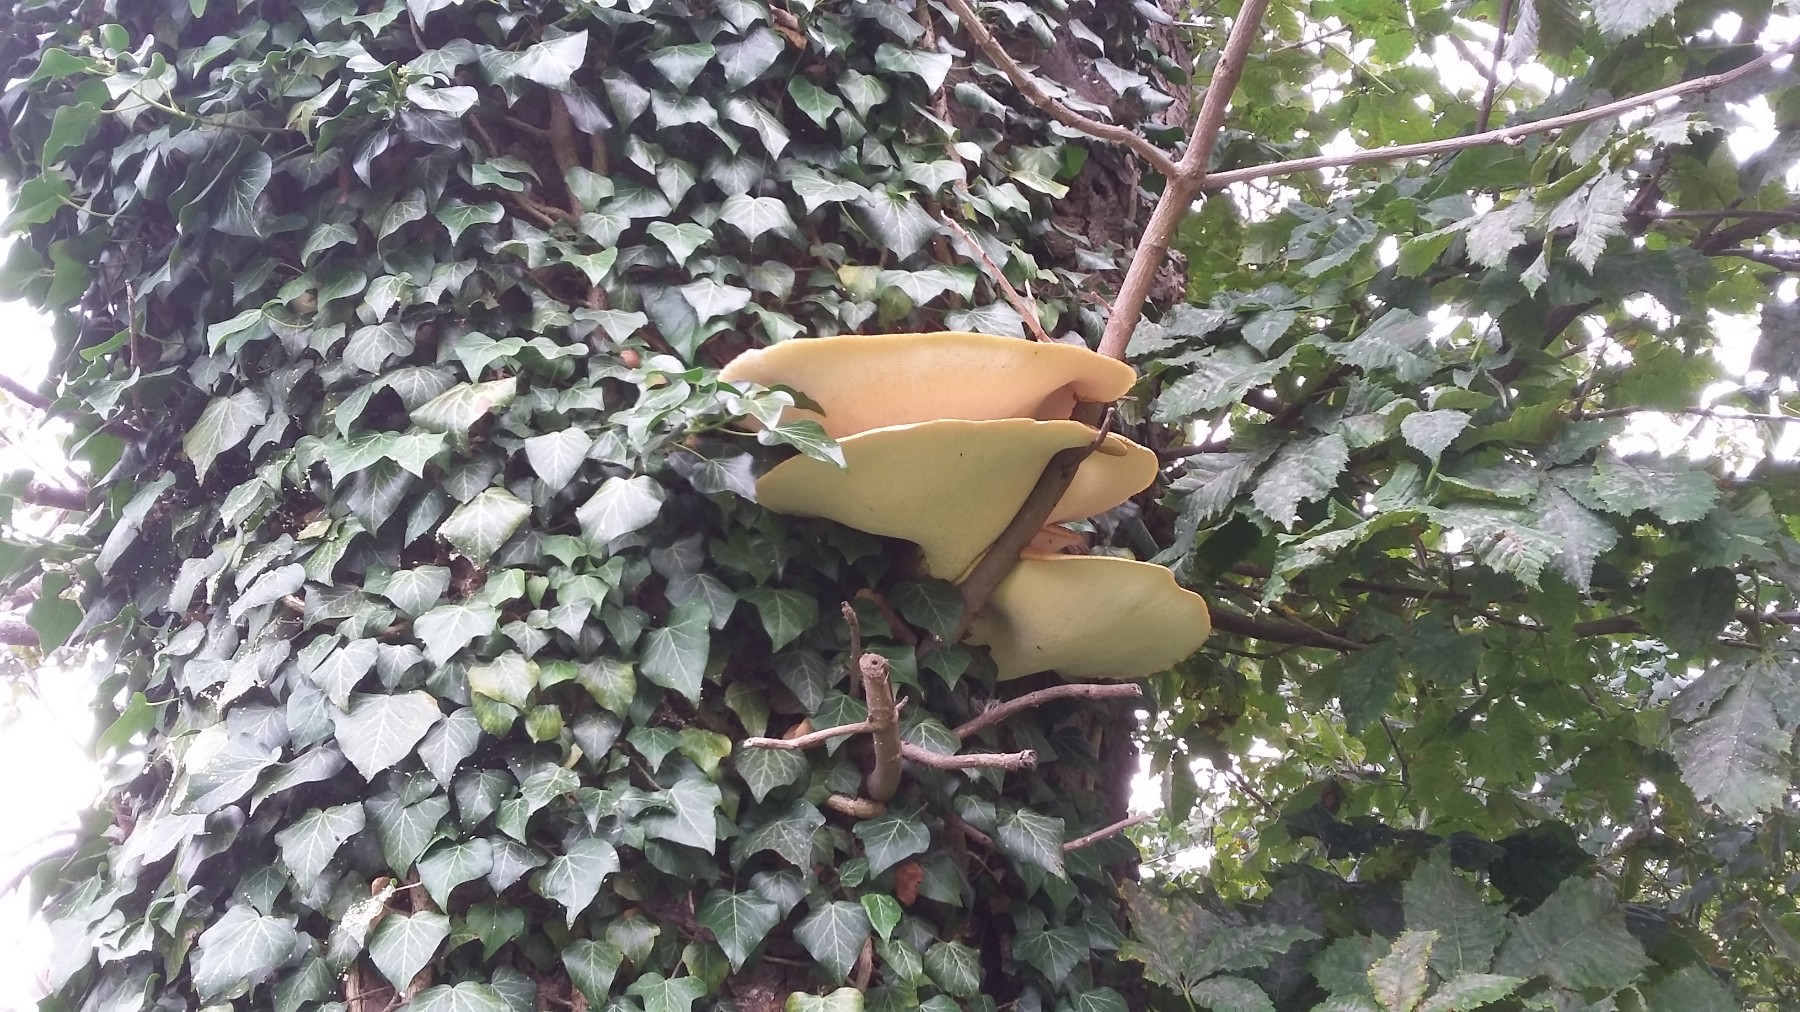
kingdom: Fungi
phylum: Basidiomycota
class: Agaricomycetes
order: Polyporales
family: Polyporaceae
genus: Cerioporus
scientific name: Cerioporus squamosus
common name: skællet stilkporesvamp
